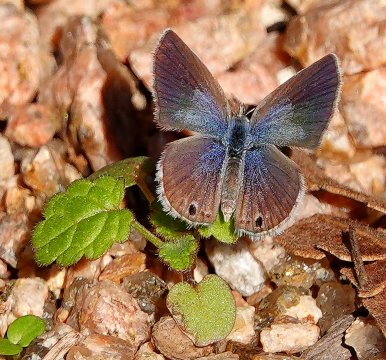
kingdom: Animalia
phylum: Arthropoda
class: Insecta
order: Lepidoptera
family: Lycaenidae
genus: Echinargus
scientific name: Echinargus isola
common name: Reakirt's Blue
